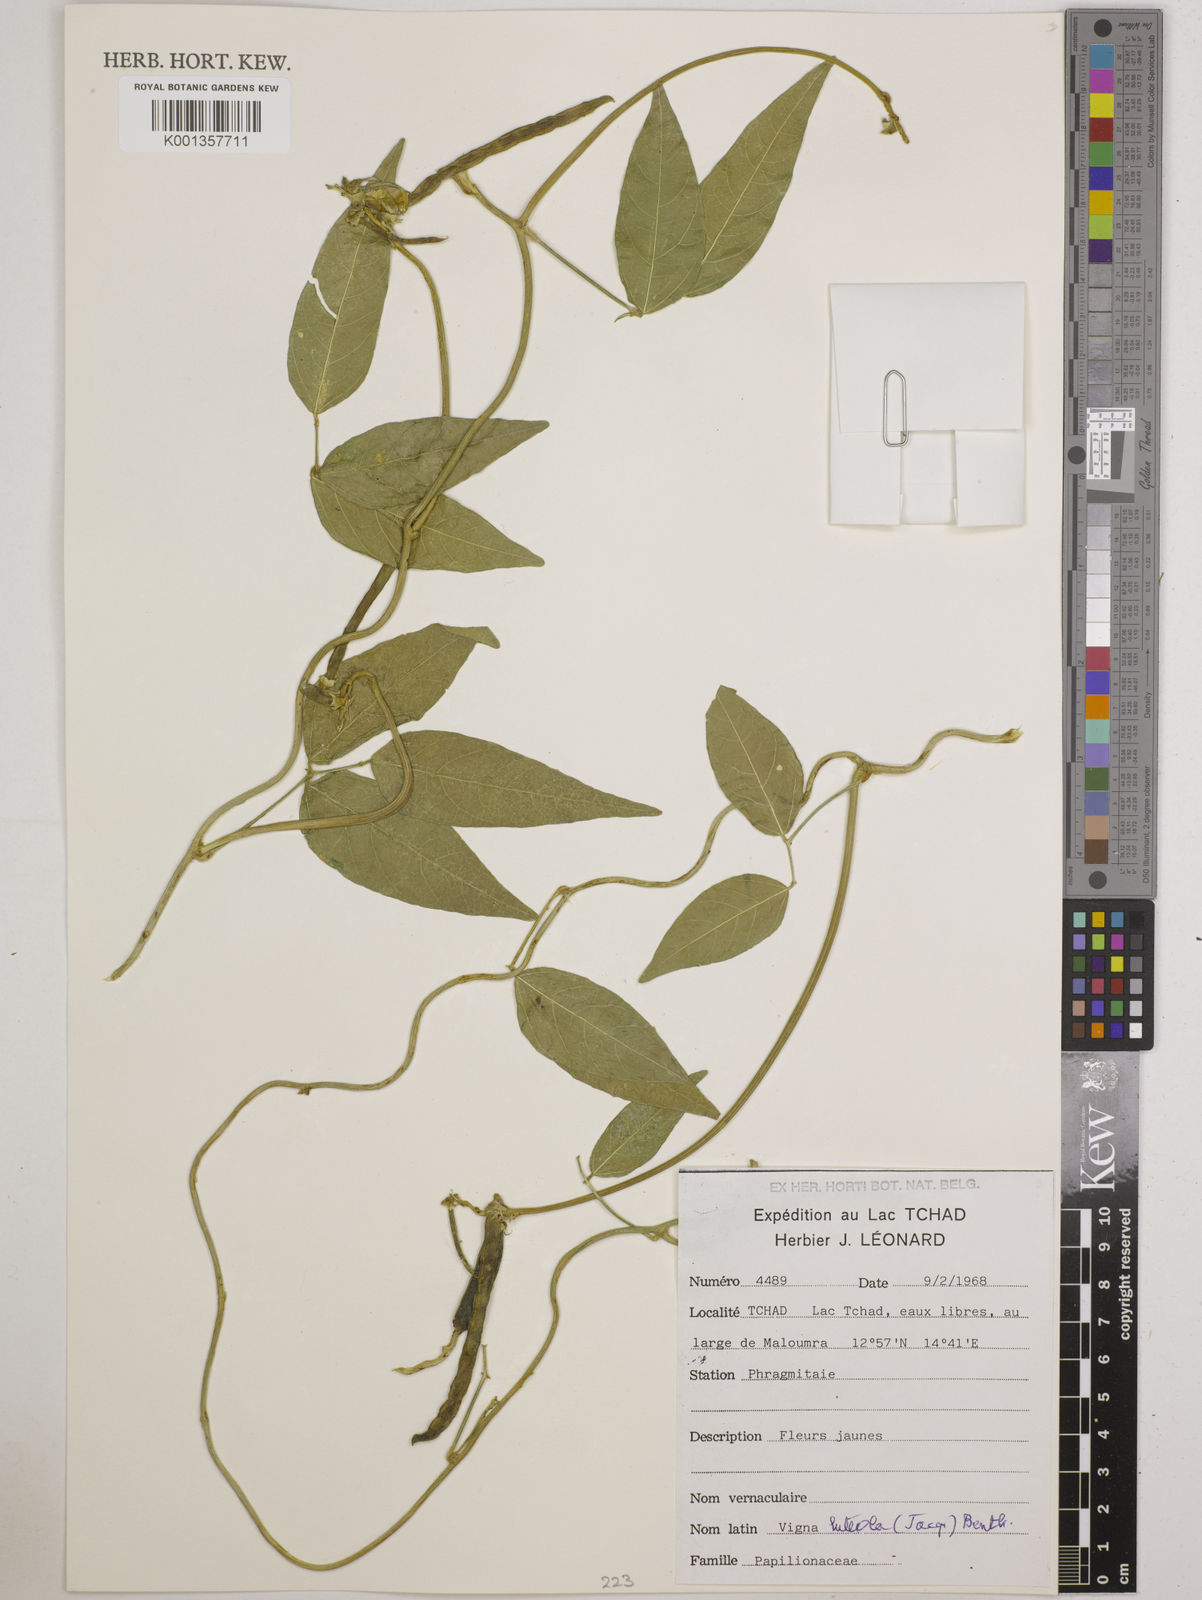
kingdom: Plantae
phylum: Tracheophyta
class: Magnoliopsida
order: Fabales
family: Fabaceae
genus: Vigna
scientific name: Vigna luteola
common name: Hairypod cowpea
